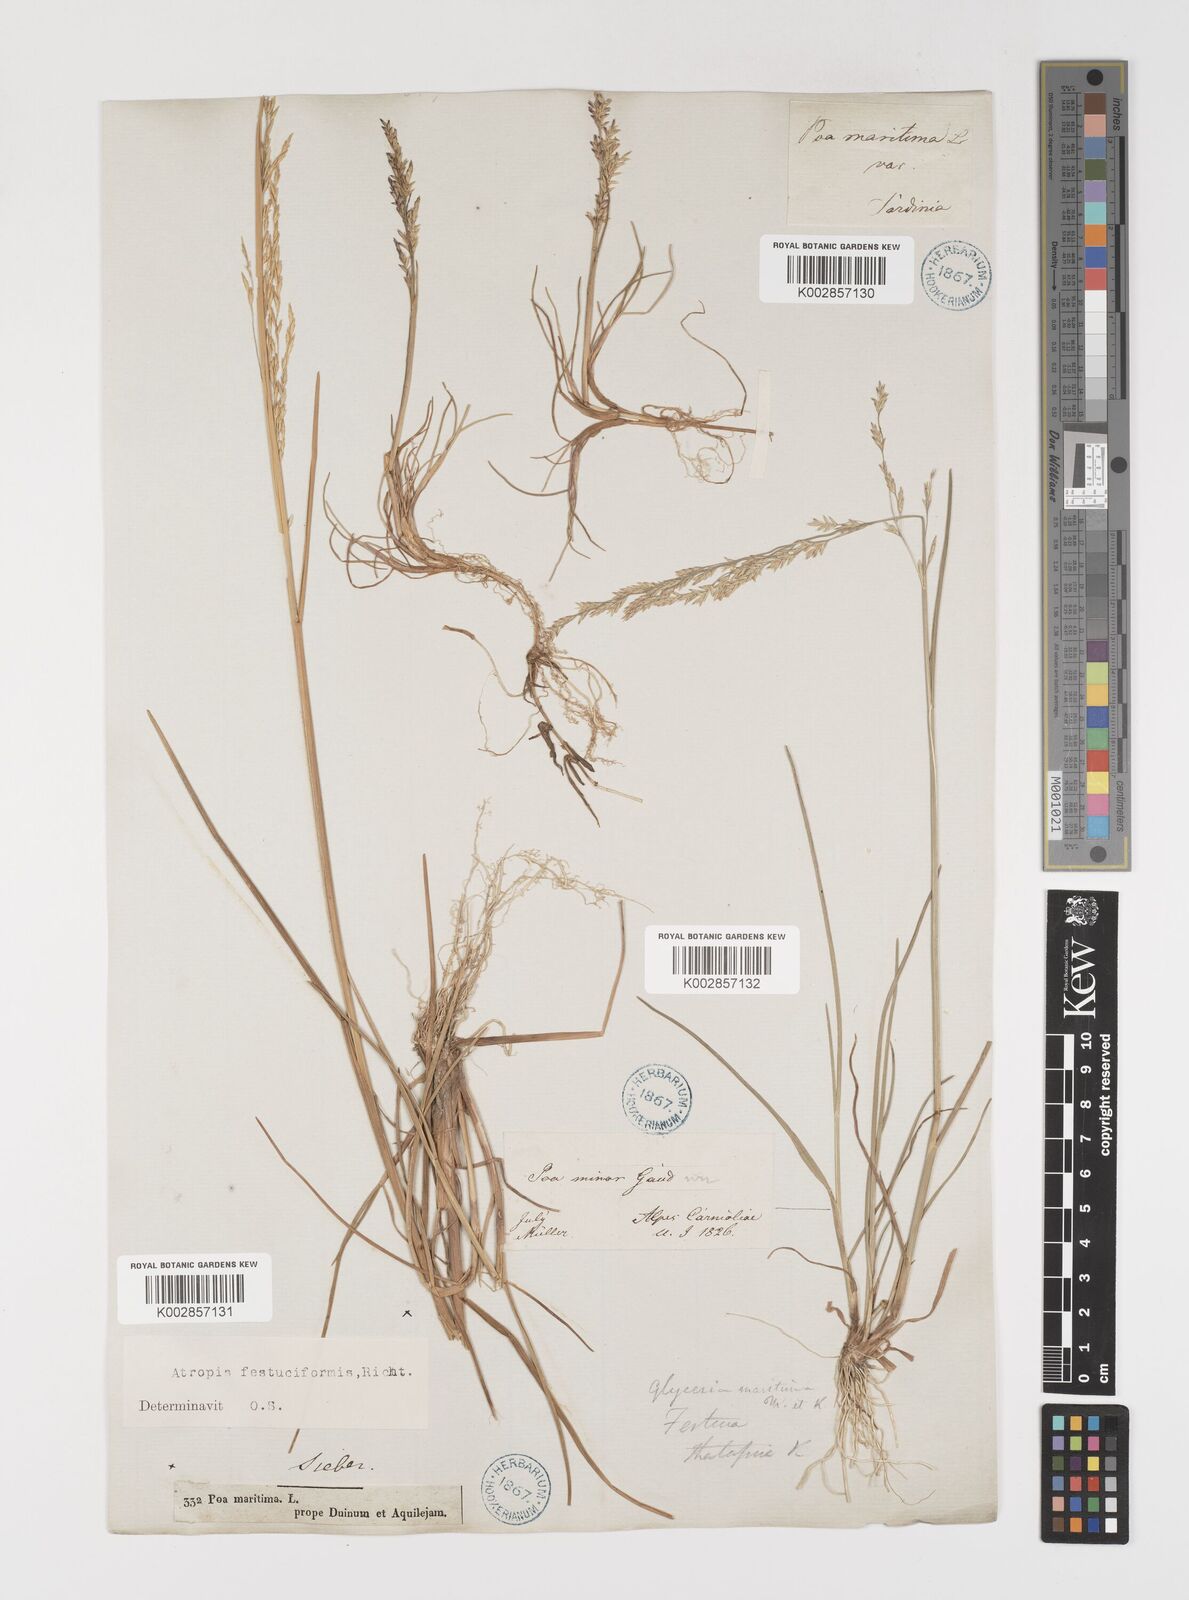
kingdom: Plantae
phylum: Tracheophyta
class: Liliopsida
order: Poales
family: Poaceae
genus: Puccinellia
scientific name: Puccinellia festuciformis
